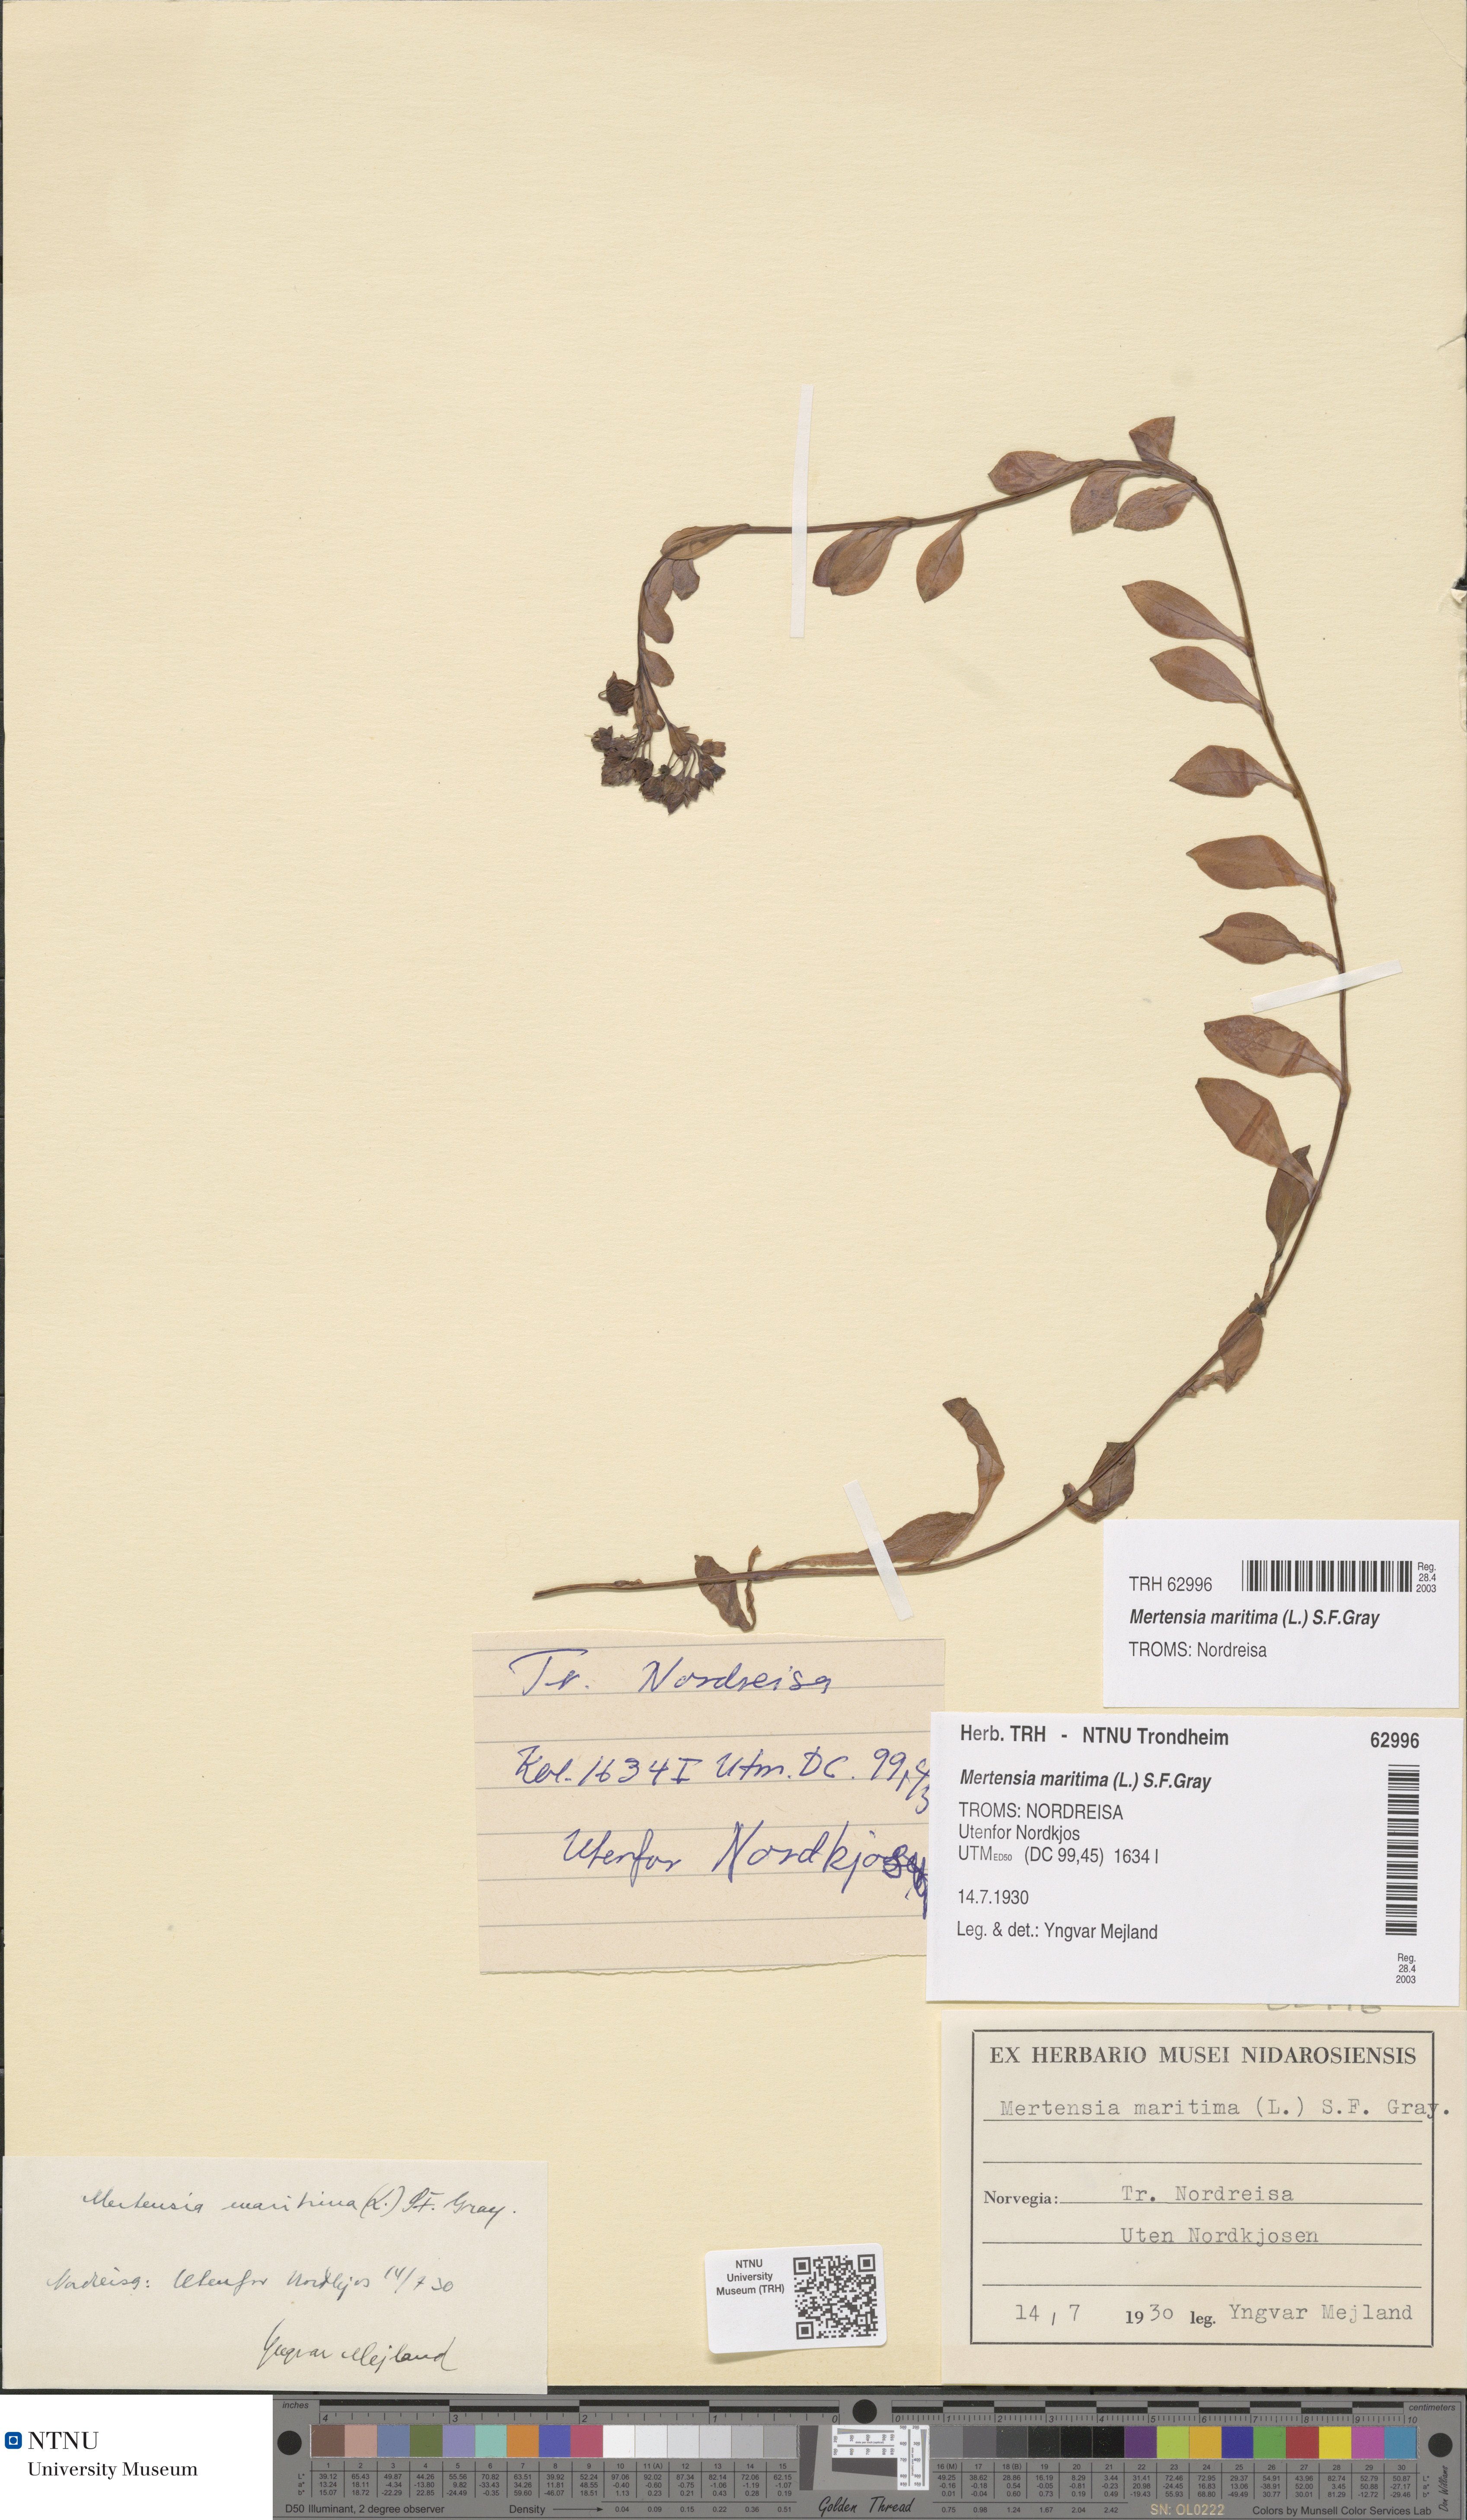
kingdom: Plantae
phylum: Tracheophyta
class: Magnoliopsida
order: Boraginales
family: Boraginaceae
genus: Mertensia
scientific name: Mertensia maritima
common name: Oysterplant
